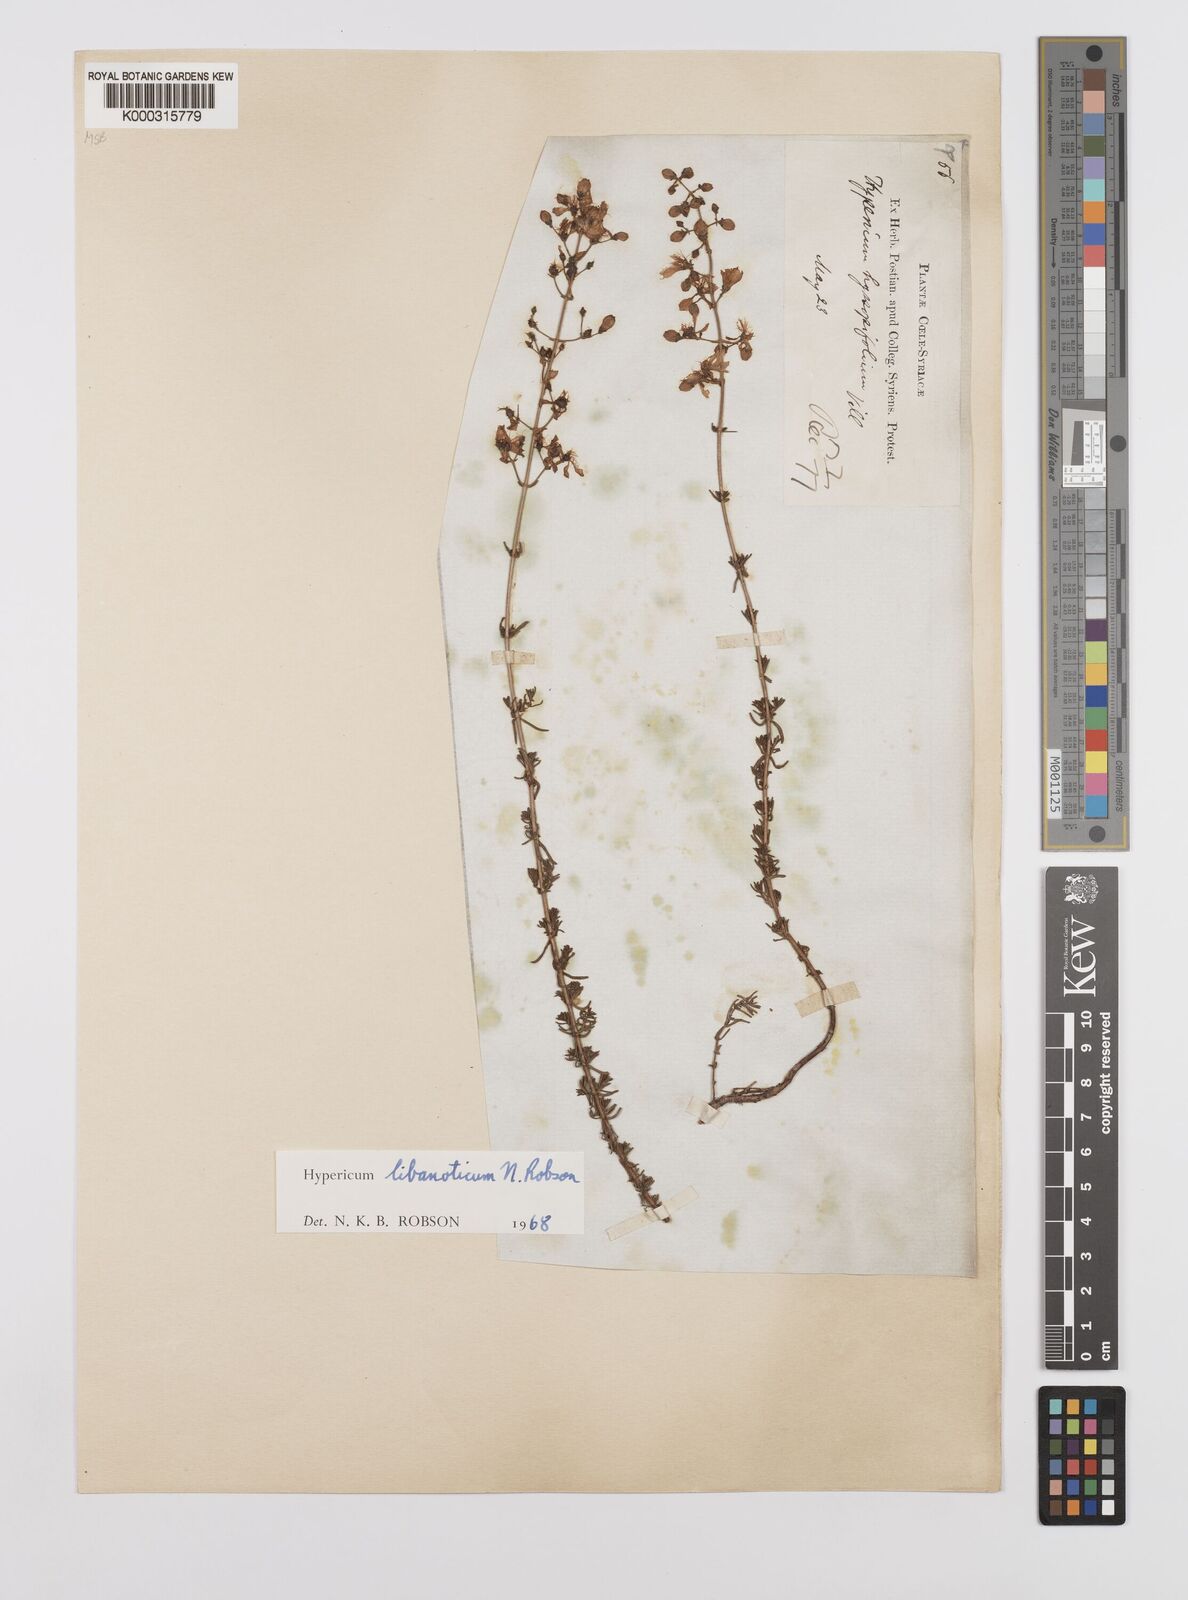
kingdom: Plantae
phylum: Tracheophyta
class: Magnoliopsida
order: Malpighiales
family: Hypericaceae
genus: Hypericum
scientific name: Hypericum libanoticum
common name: Lebanon saint john’s wort
